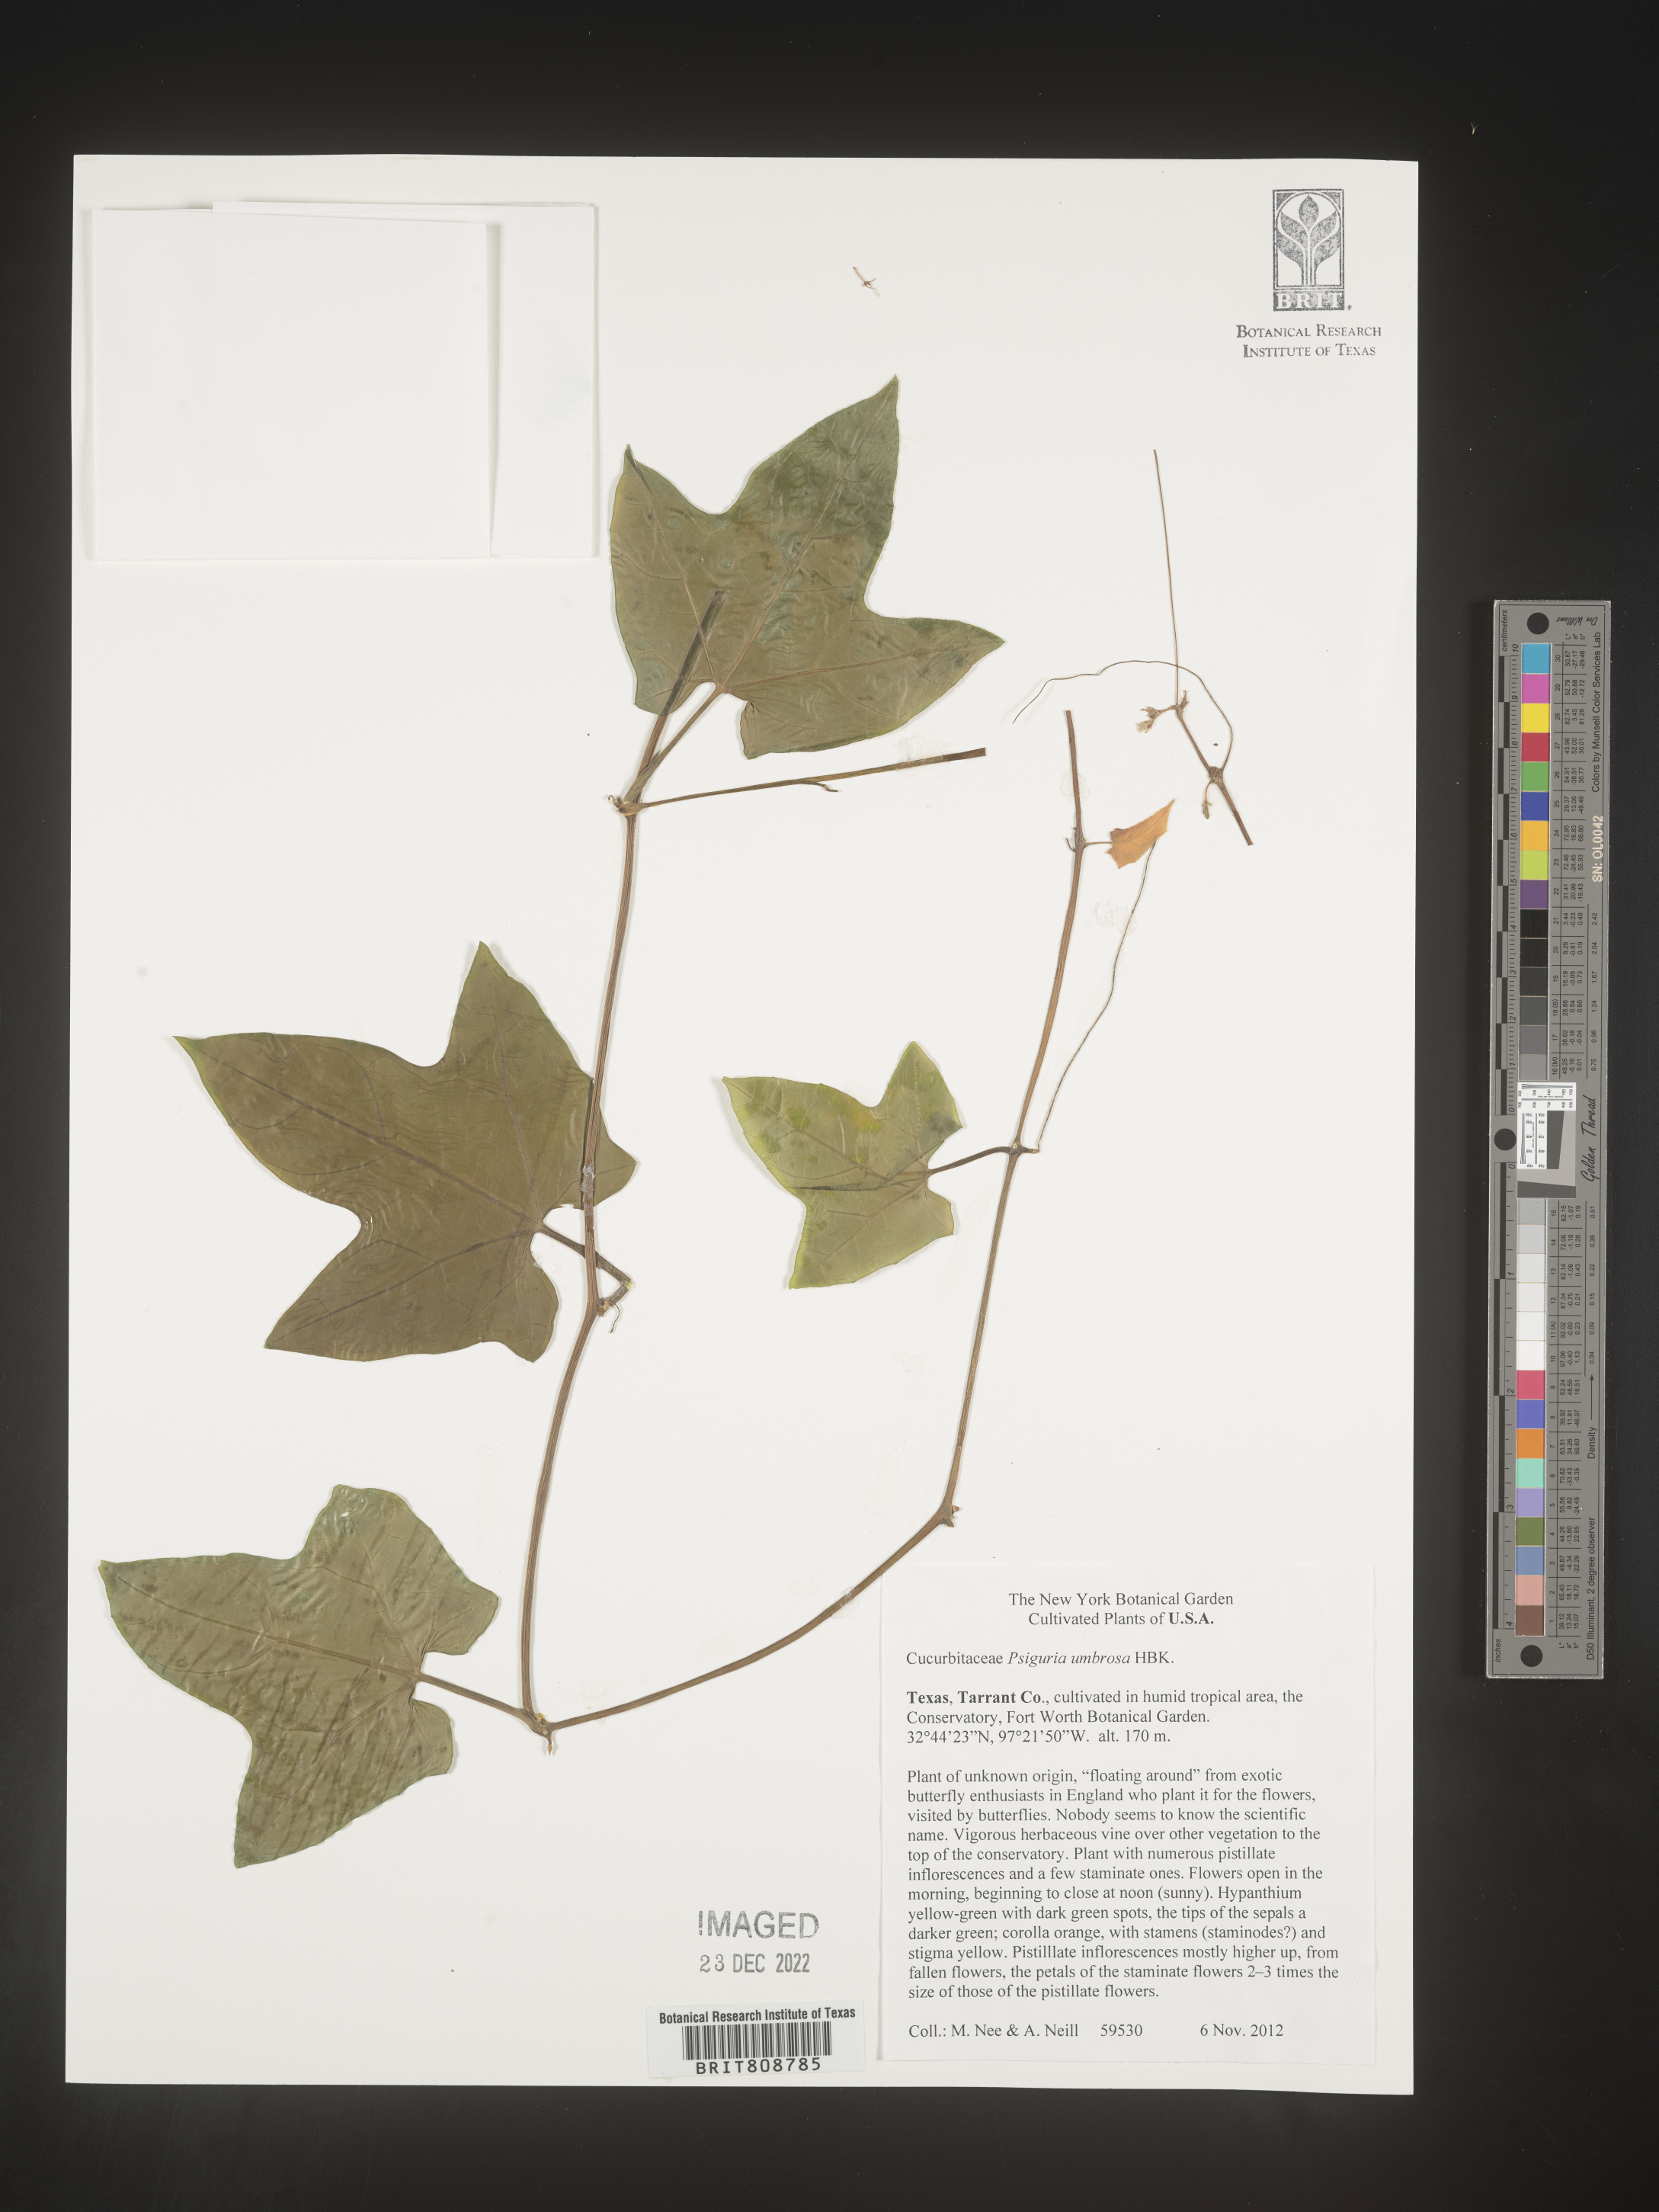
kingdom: Plantae
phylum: Tracheophyta
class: Magnoliopsida
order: Cucurbitales
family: Cucurbitaceae
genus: Psiguria
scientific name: Psiguria
